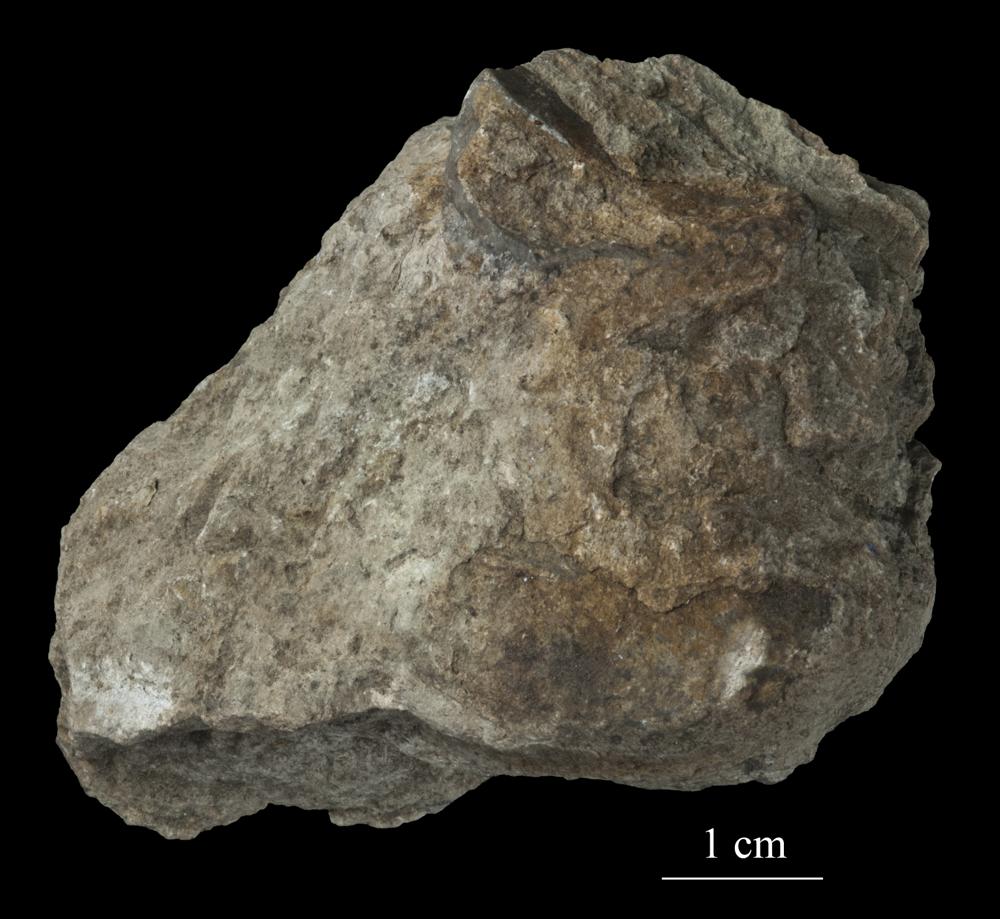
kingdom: Animalia
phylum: Mollusca
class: Gastropoda
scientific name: Gastropoda
